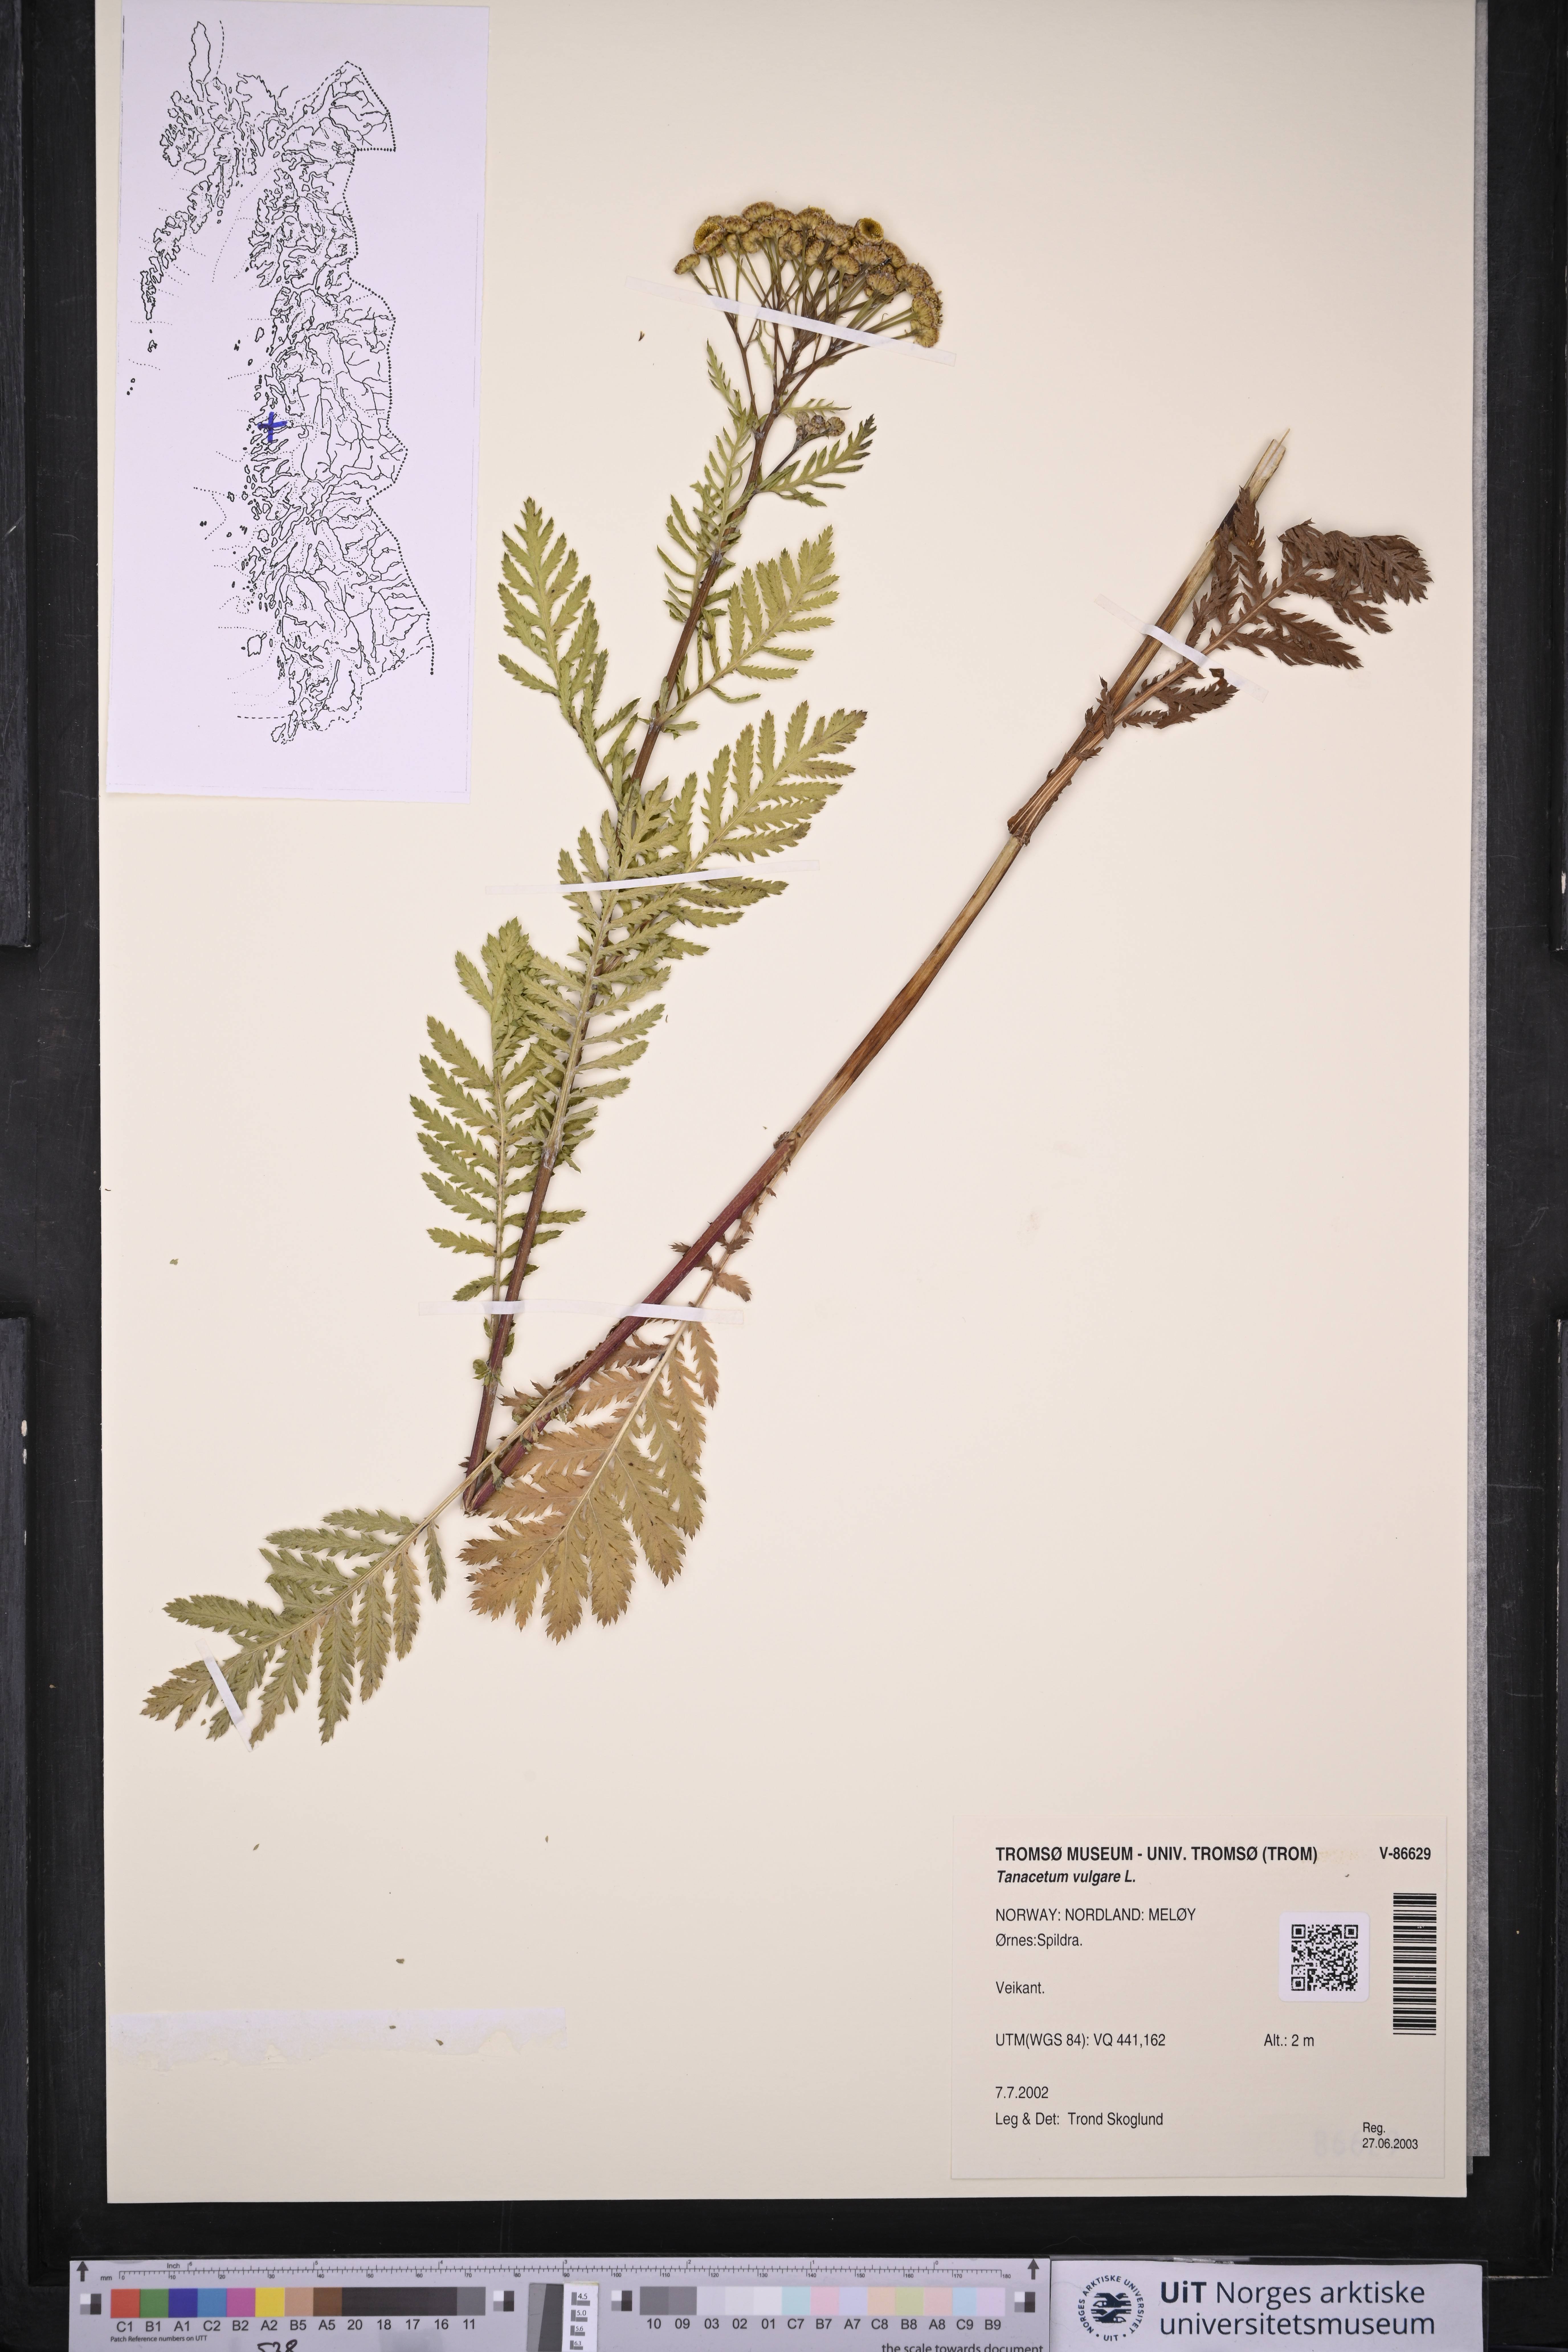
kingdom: Plantae
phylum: Tracheophyta
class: Magnoliopsida
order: Asterales
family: Asteraceae
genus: Tanacetum
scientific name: Tanacetum vulgare
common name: Common tansy
